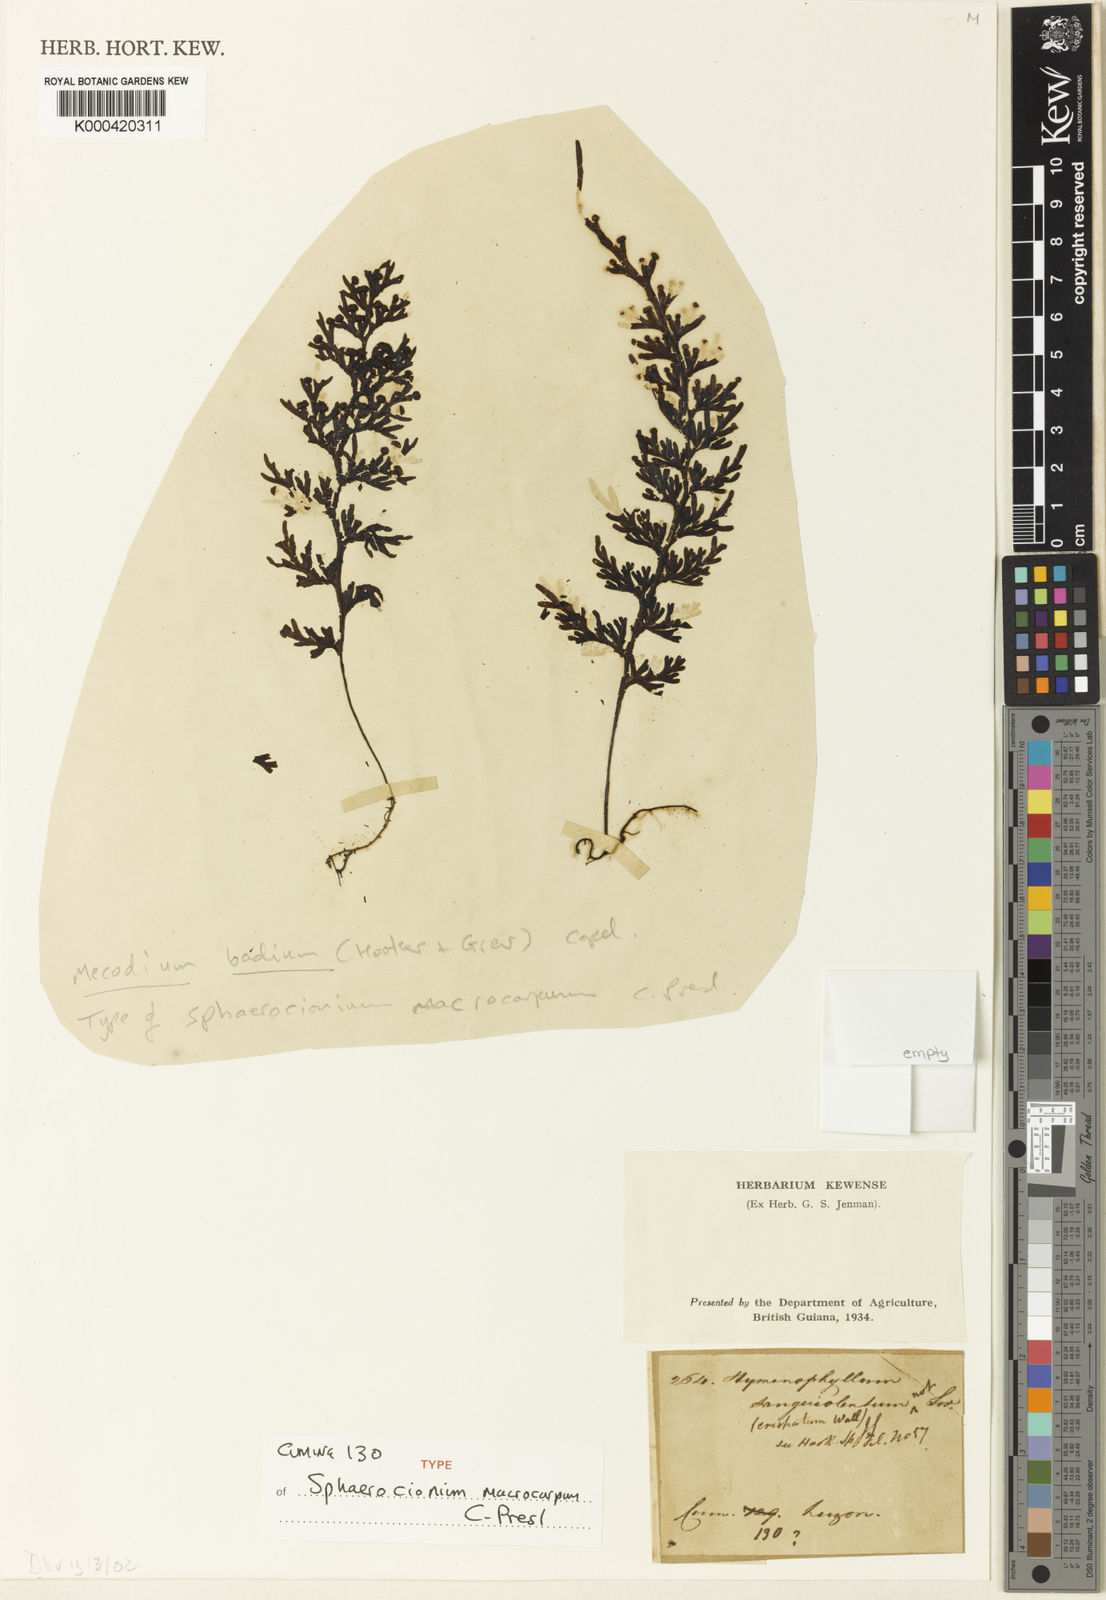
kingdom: Plantae
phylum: Tracheophyta
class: Polypodiopsida
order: Hymenophyllales
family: Hymenophyllaceae
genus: Hymenophyllum
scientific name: Hymenophyllum badium
